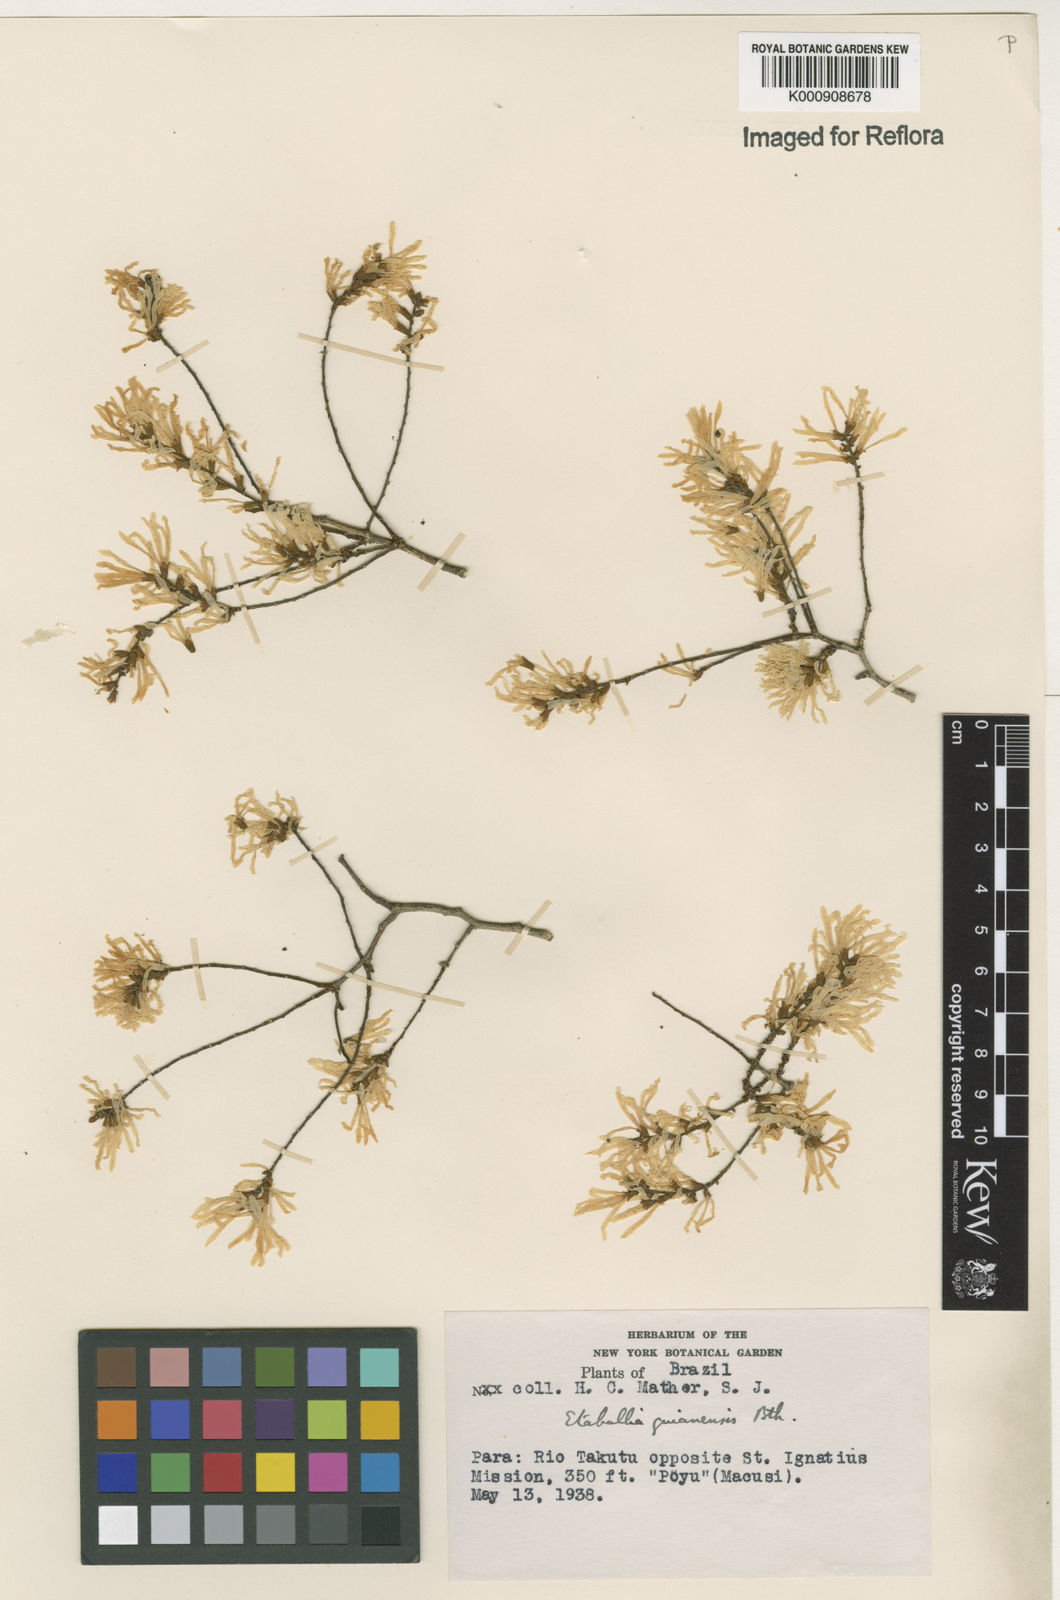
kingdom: Plantae
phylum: Tracheophyta
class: Magnoliopsida
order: Fabales
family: Fabaceae
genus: Pterocarpus
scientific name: Pterocarpus dubius
